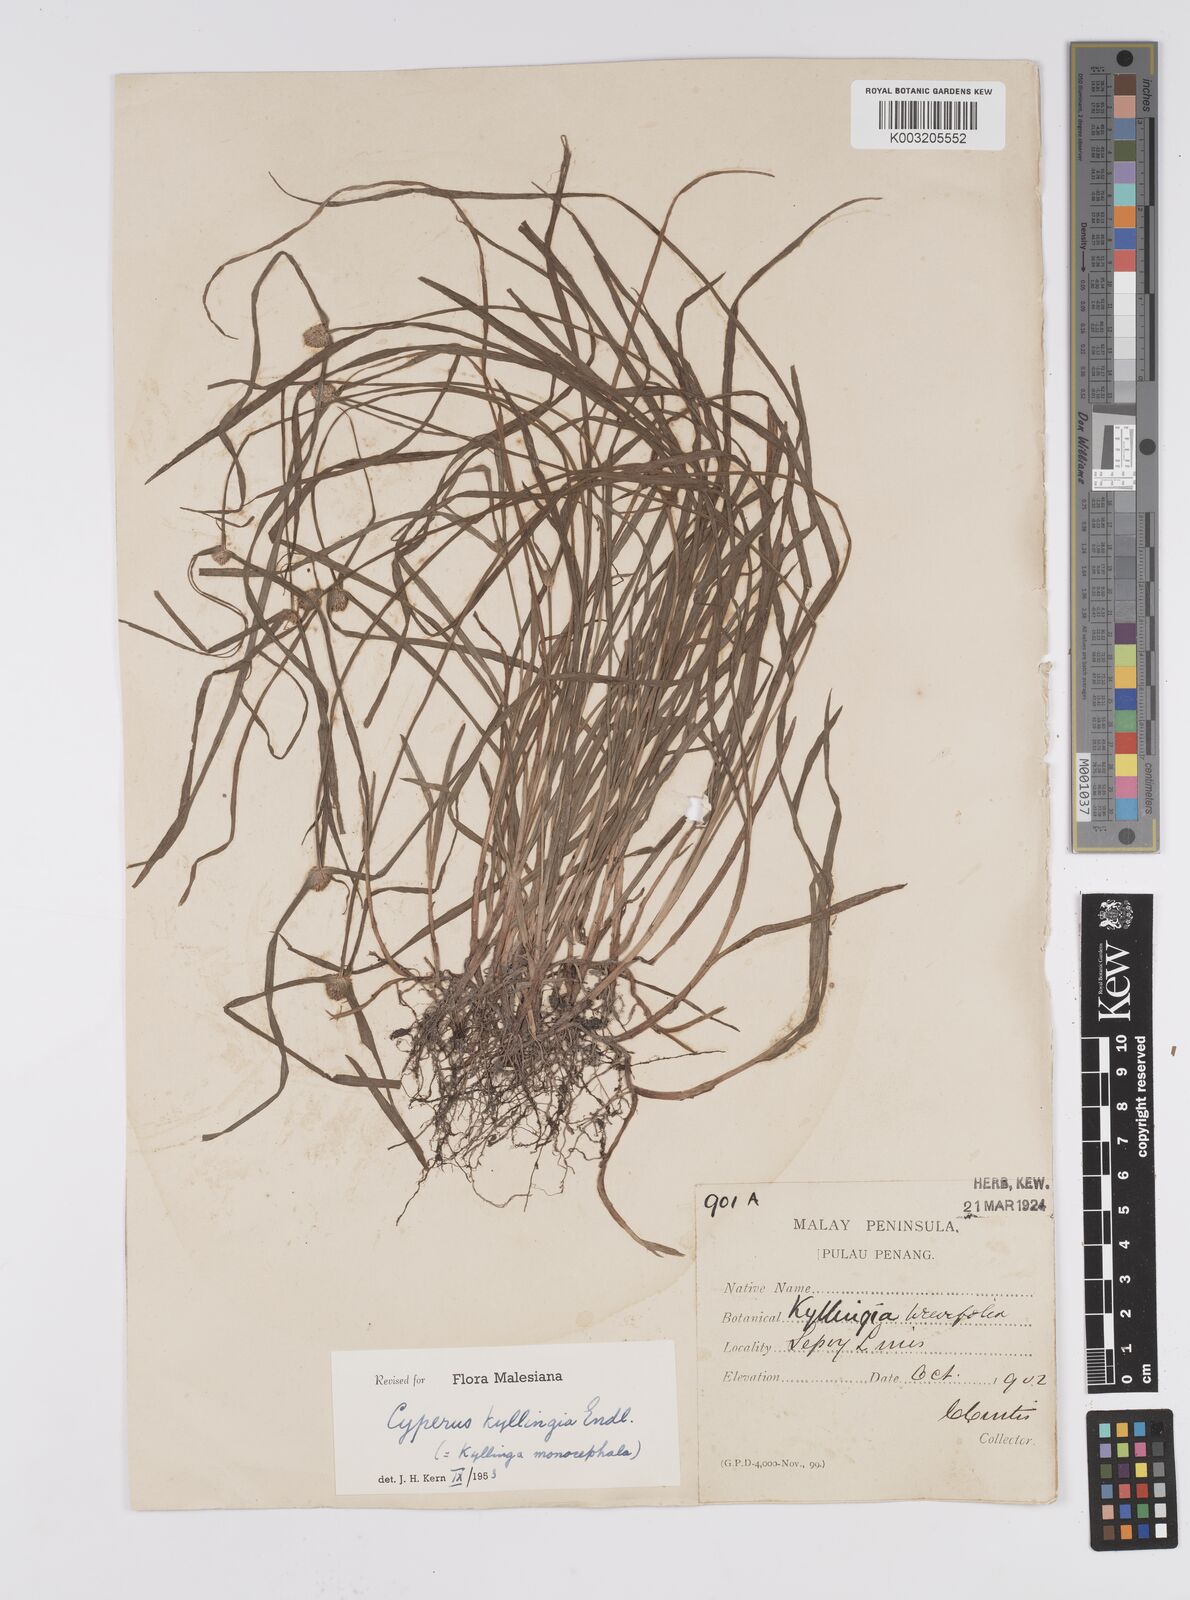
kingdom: Plantae
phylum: Tracheophyta
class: Liliopsida
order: Poales
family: Cyperaceae
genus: Cyperus
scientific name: Cyperus nemoralis
